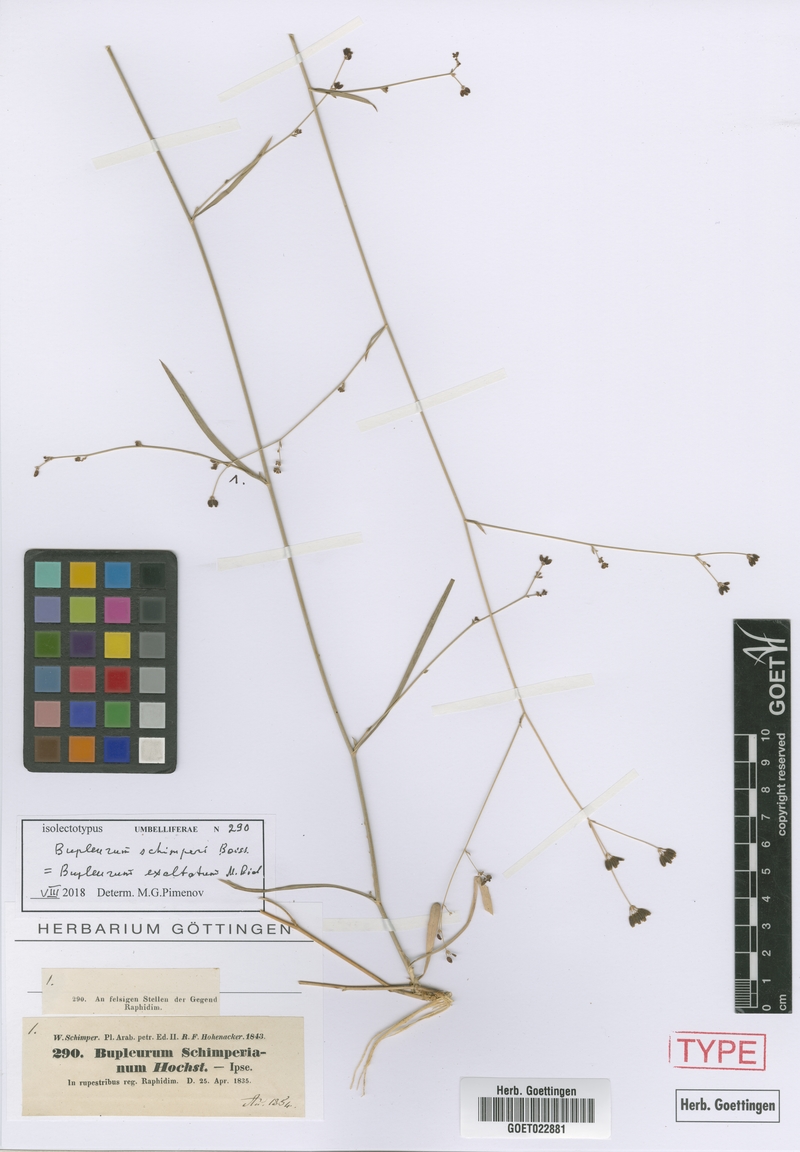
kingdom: Plantae
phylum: Tracheophyta
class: Magnoliopsida
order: Apiales
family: Apiaceae
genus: Bupleurum
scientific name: Bupleurum exaltatum
